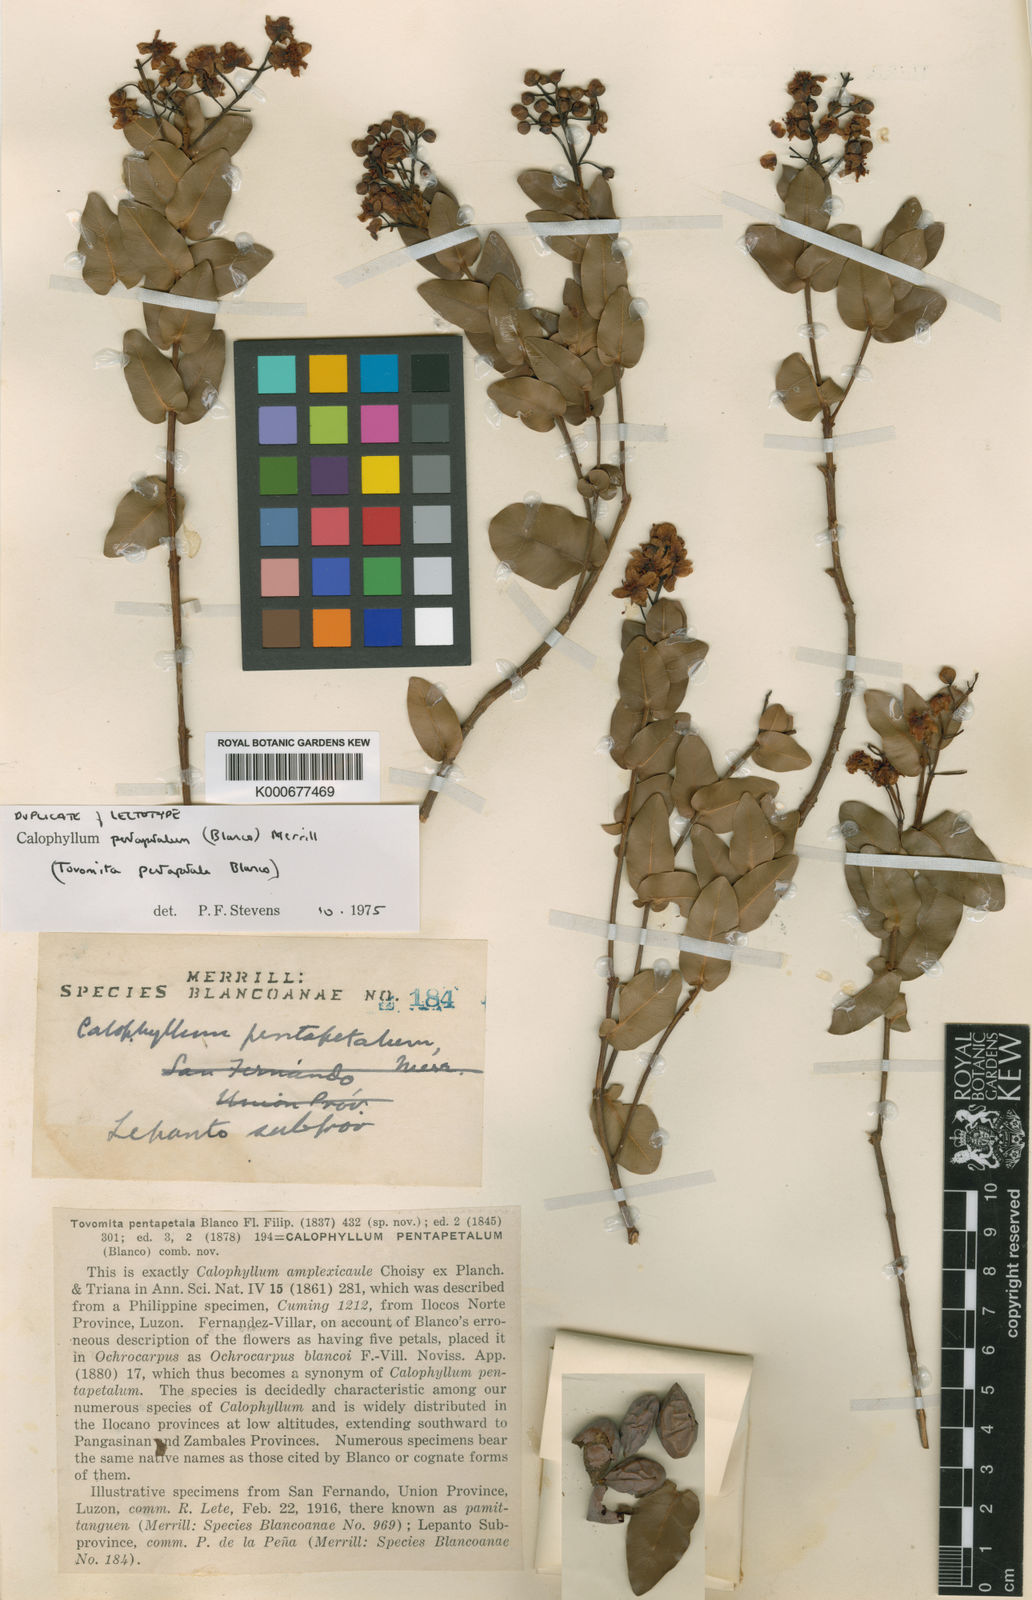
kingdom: Plantae
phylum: Tracheophyta
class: Magnoliopsida
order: Malpighiales
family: Calophyllaceae
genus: Calophyllum
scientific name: Calophyllum pentapetalum
